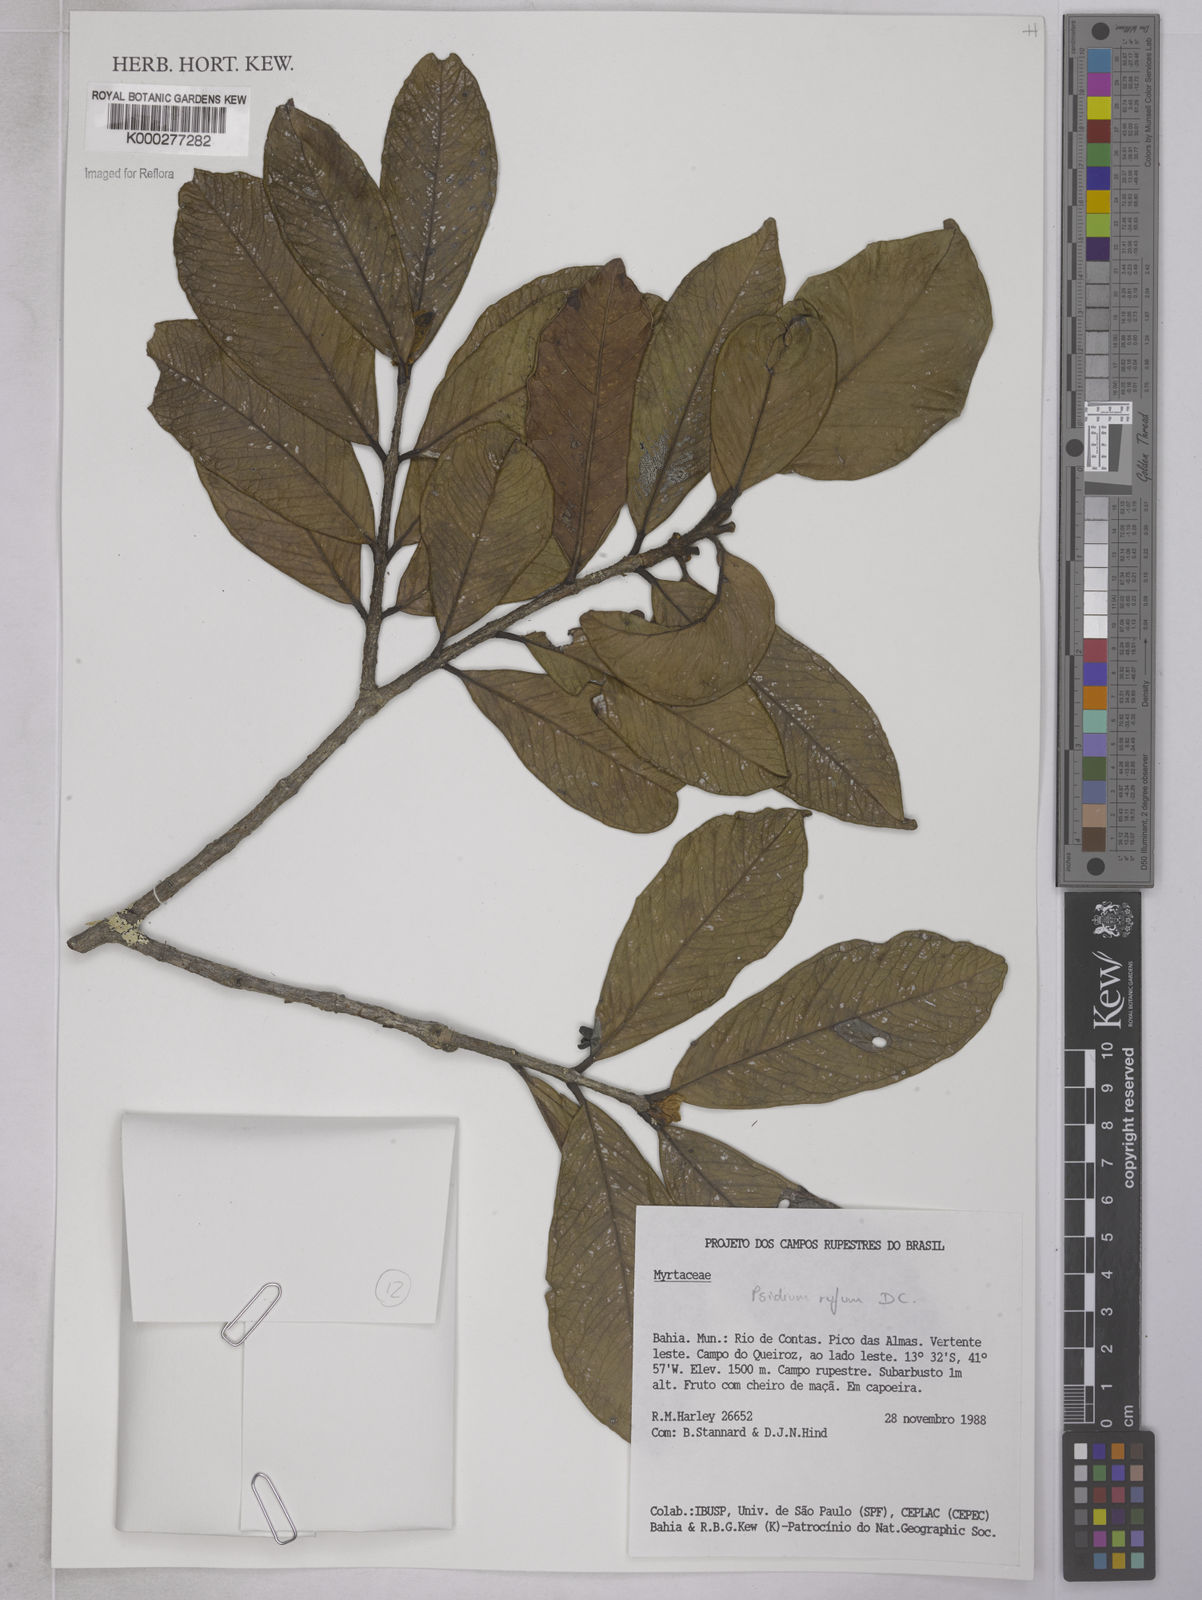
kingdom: Plantae
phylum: Tracheophyta
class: Magnoliopsida
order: Myrtales
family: Myrtaceae
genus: Psidium
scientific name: Psidium rufum
